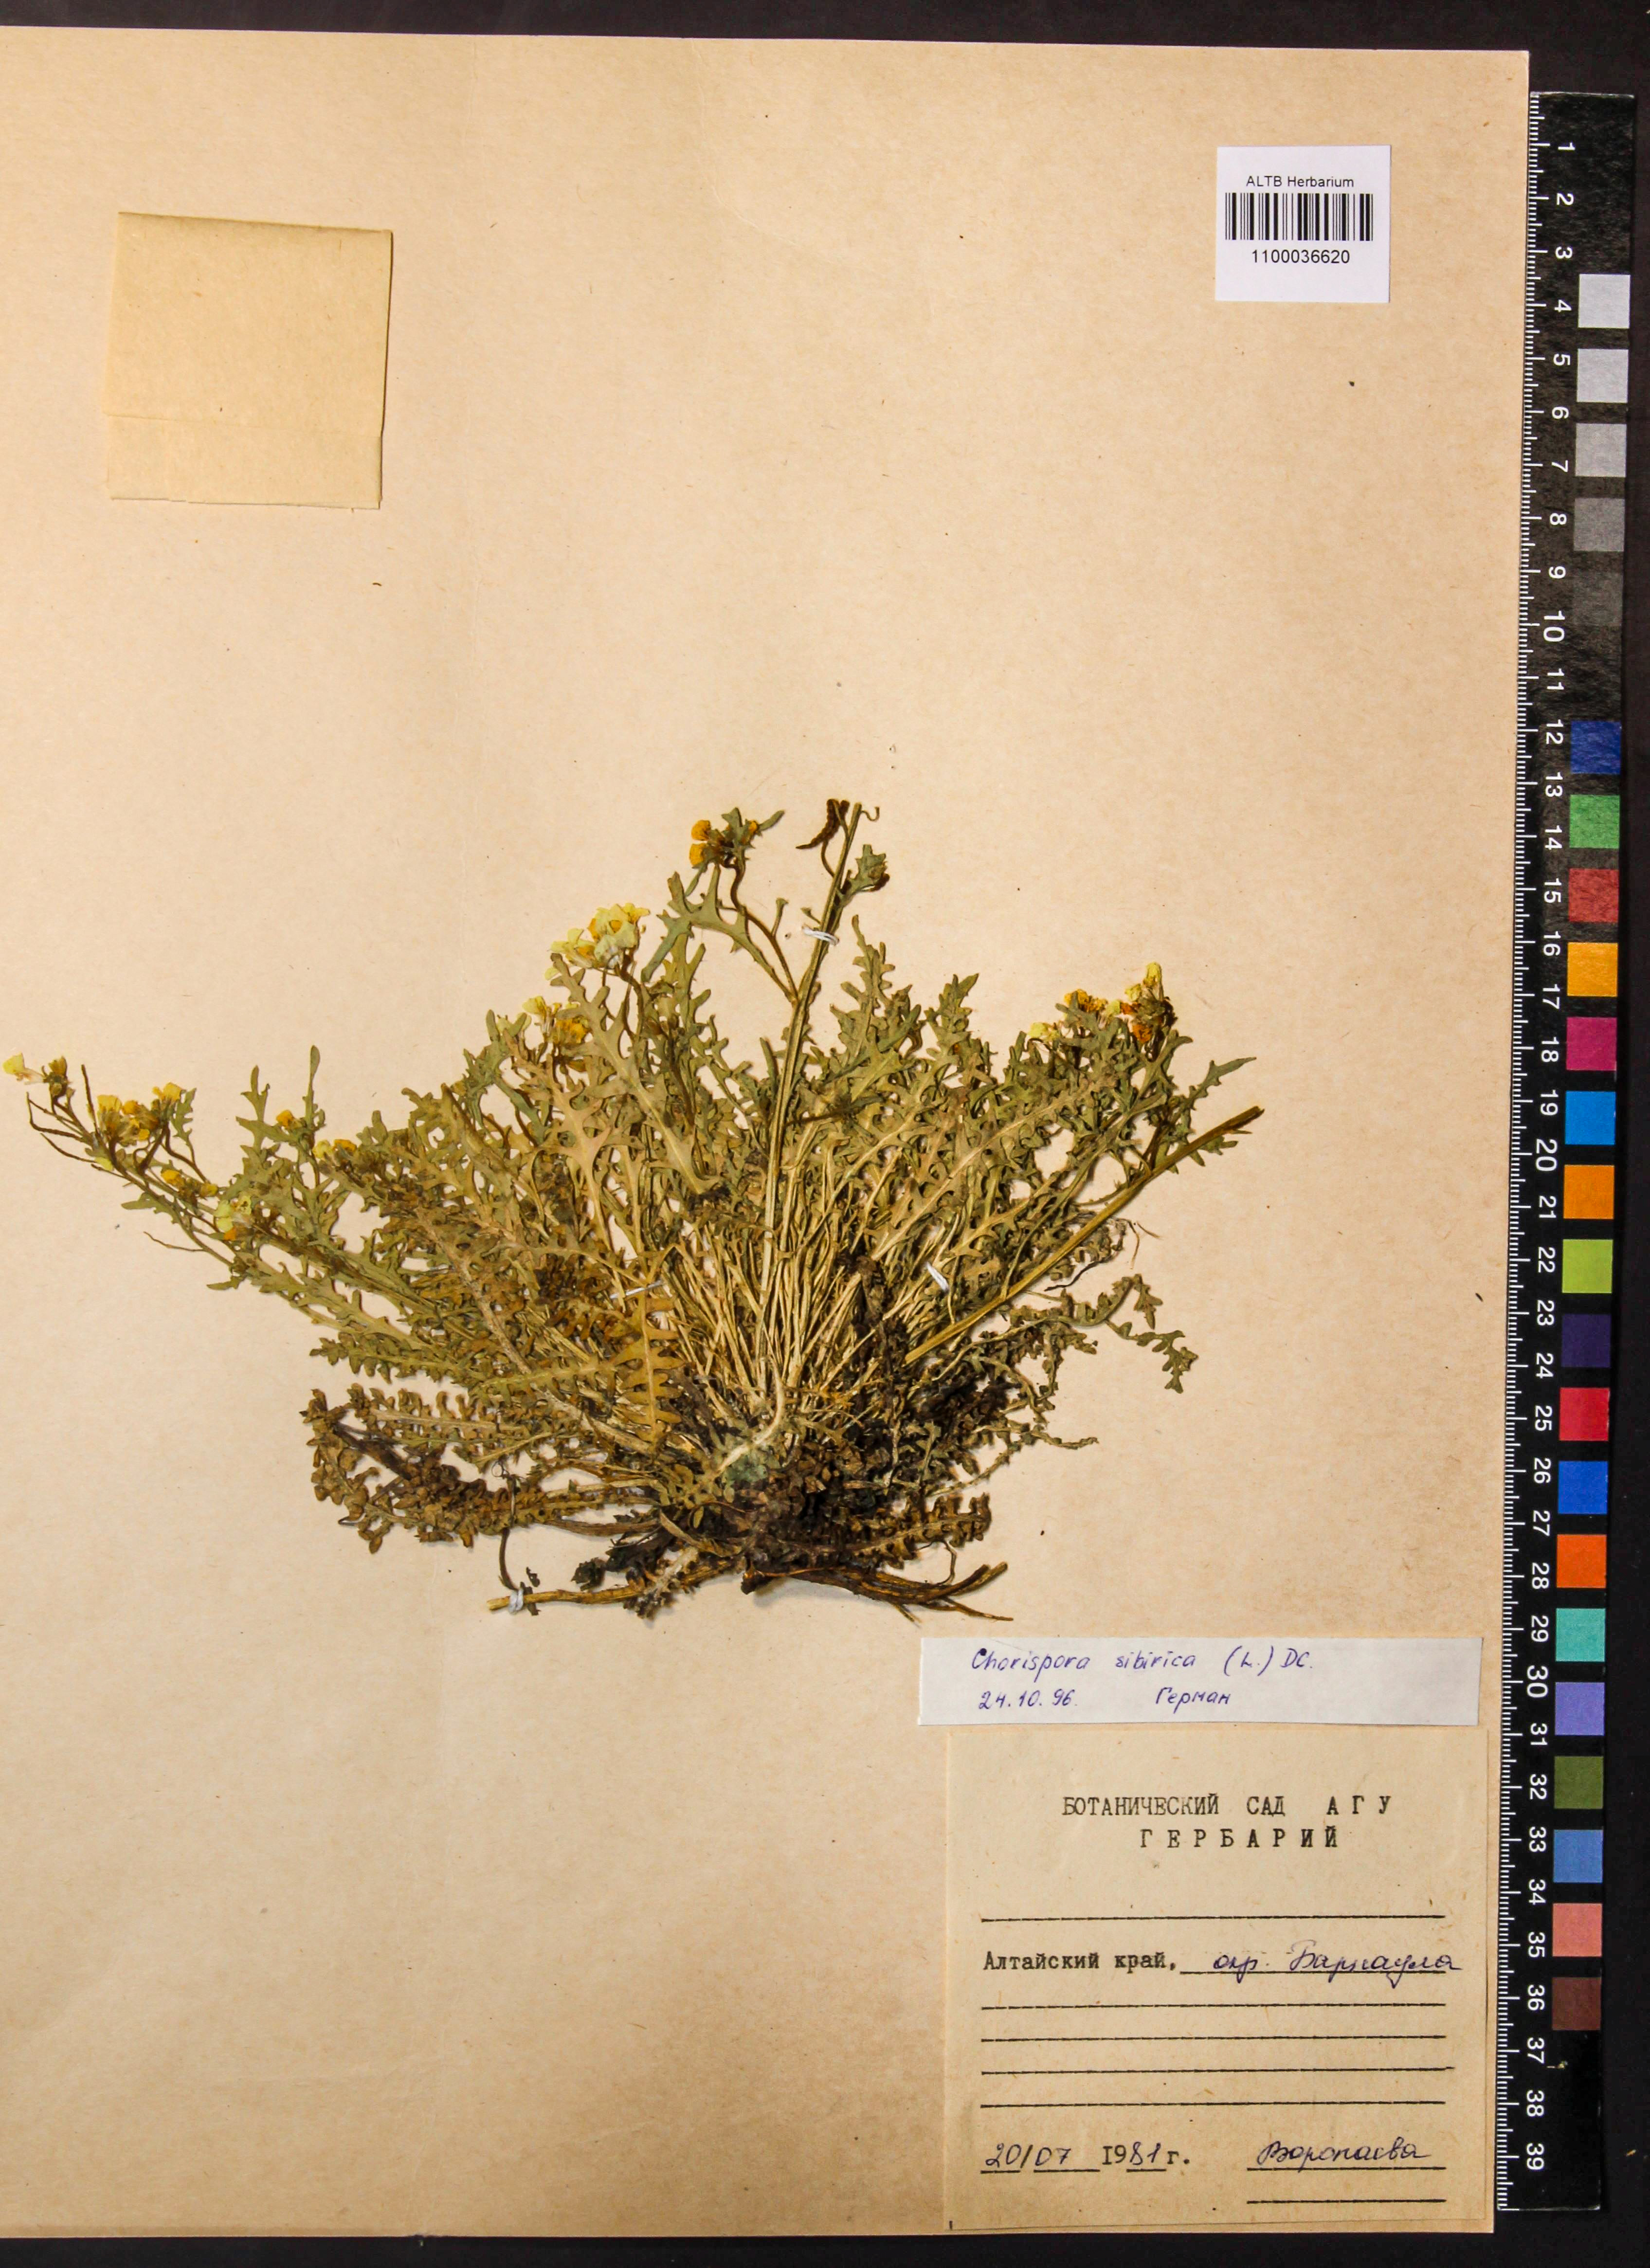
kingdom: Plantae
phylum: Tracheophyta
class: Magnoliopsida
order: Brassicales
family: Brassicaceae
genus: Chorispora
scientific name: Chorispora sibirica
